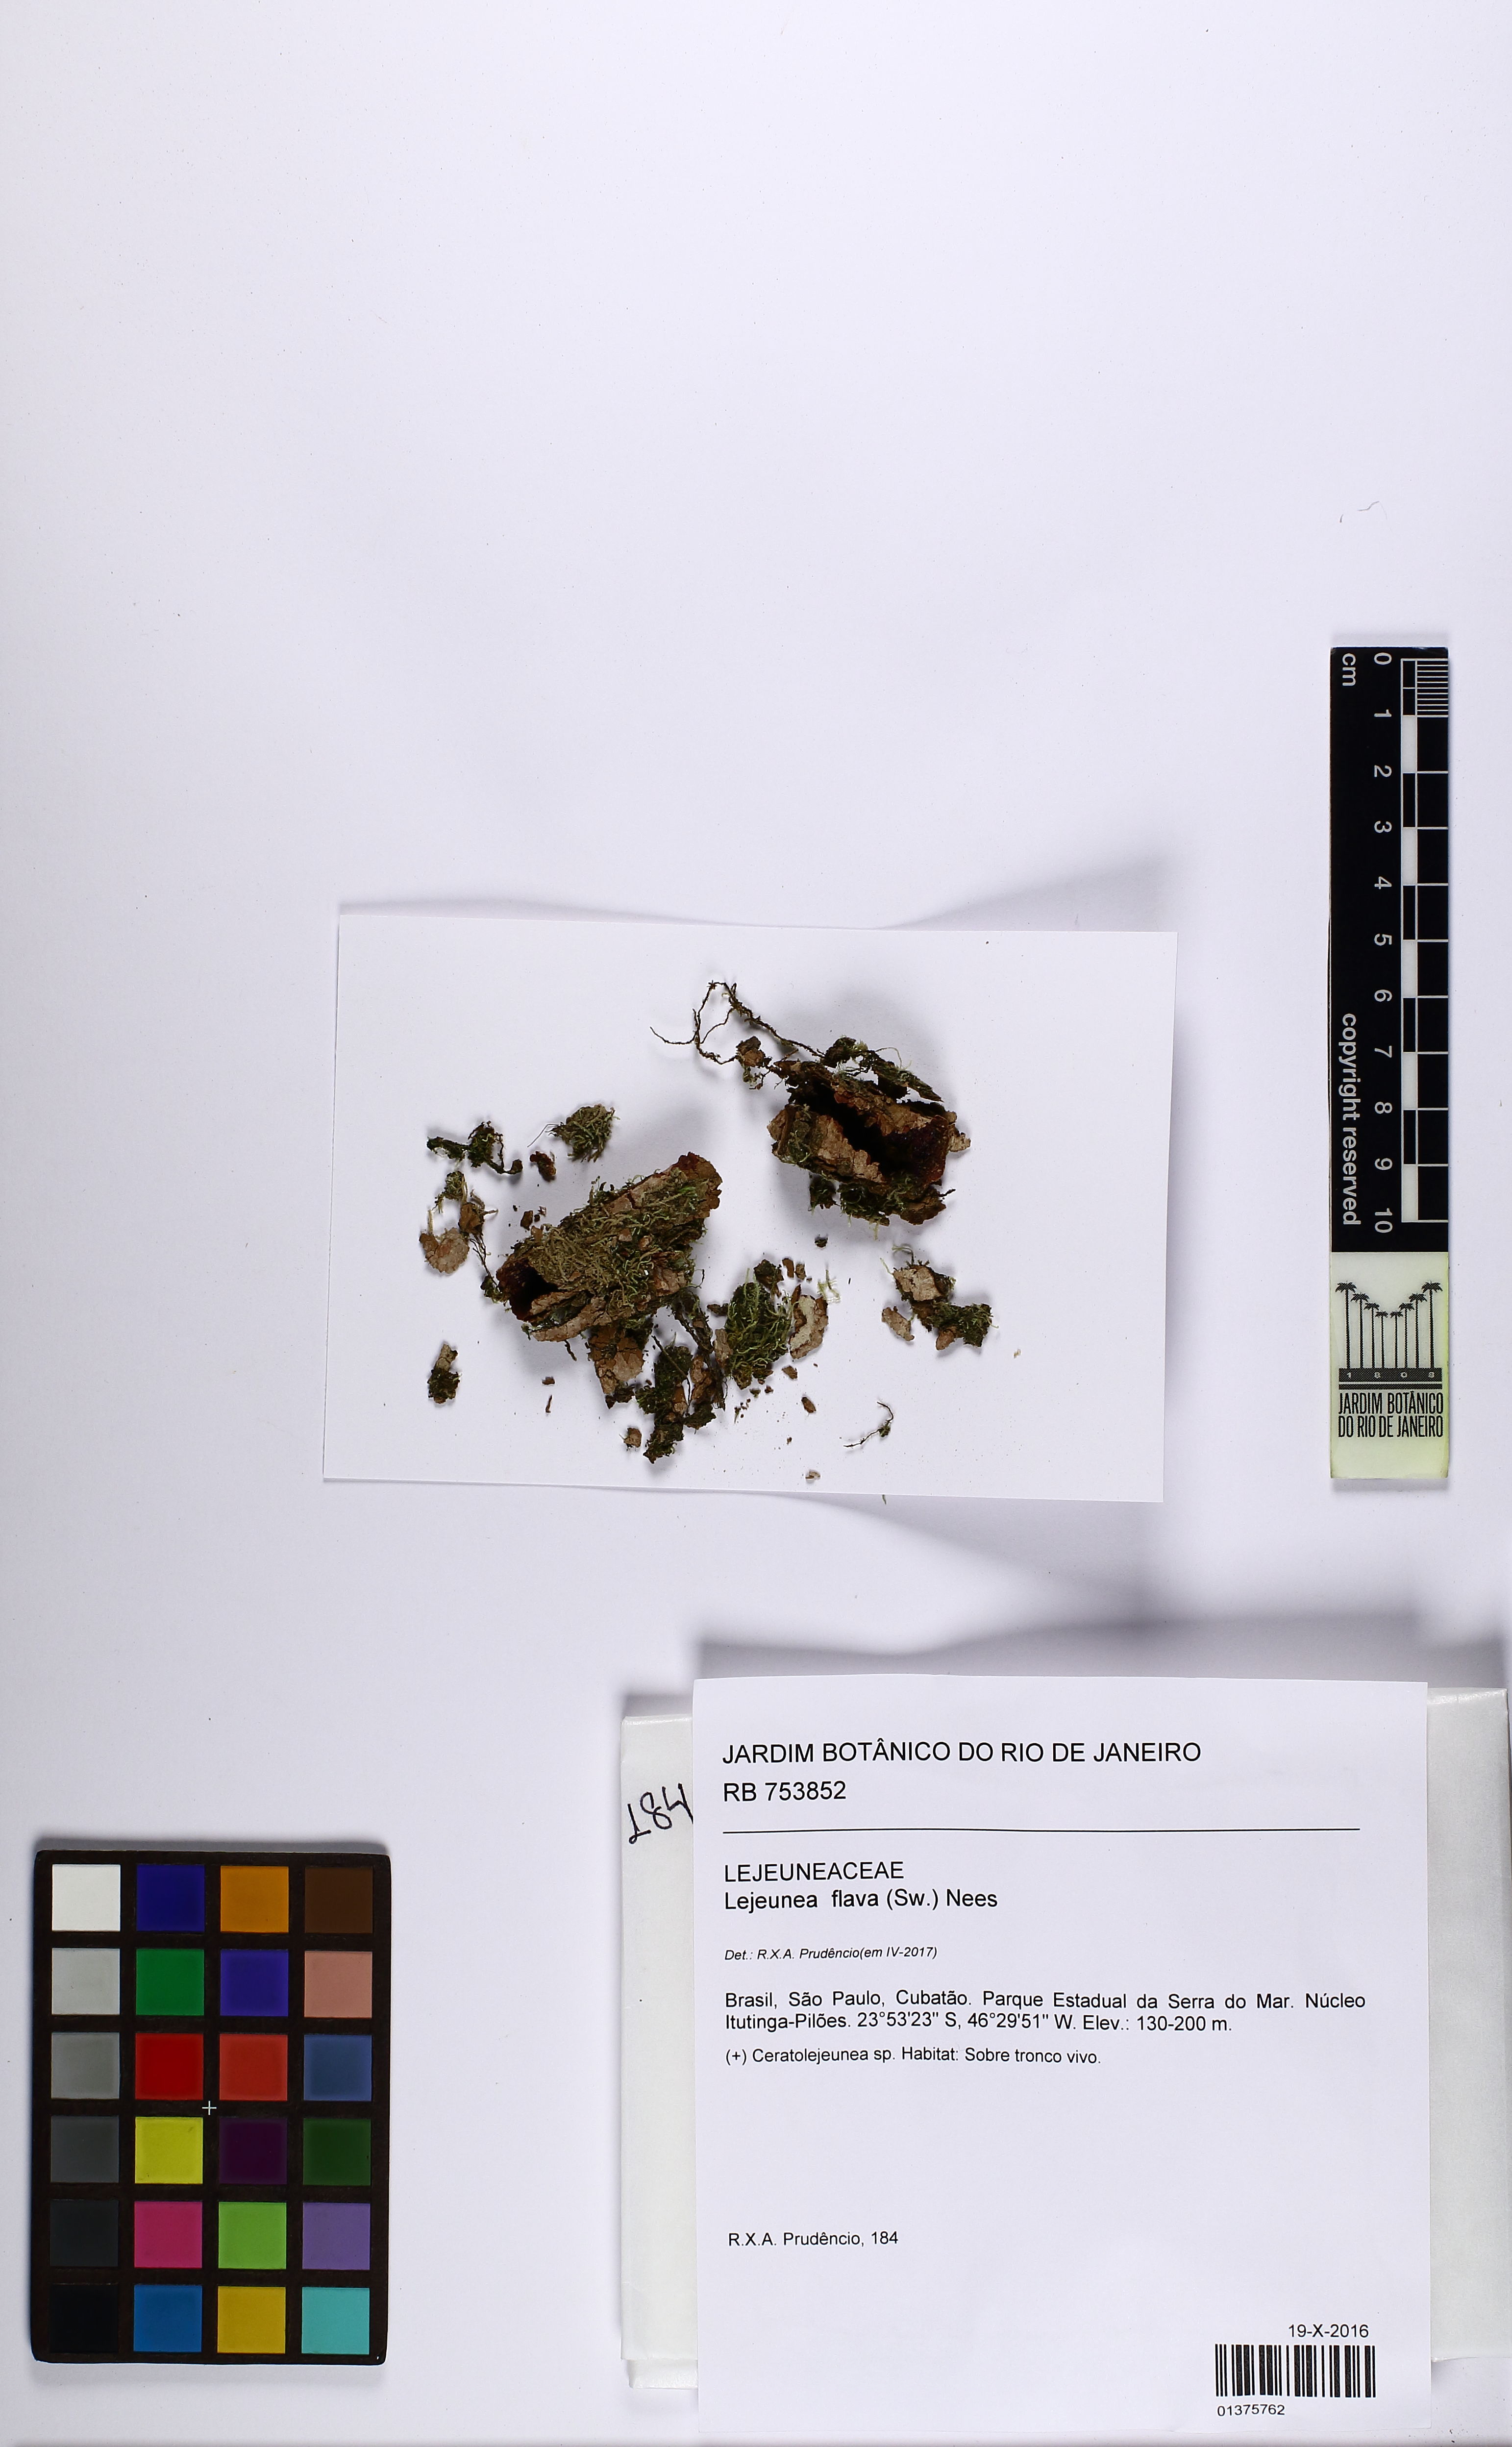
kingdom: Plantae
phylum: Marchantiophyta
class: Jungermanniopsida
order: Porellales
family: Lejeuneaceae
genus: Lejeunea
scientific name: Lejeunea flava
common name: Yellow pouncewort
